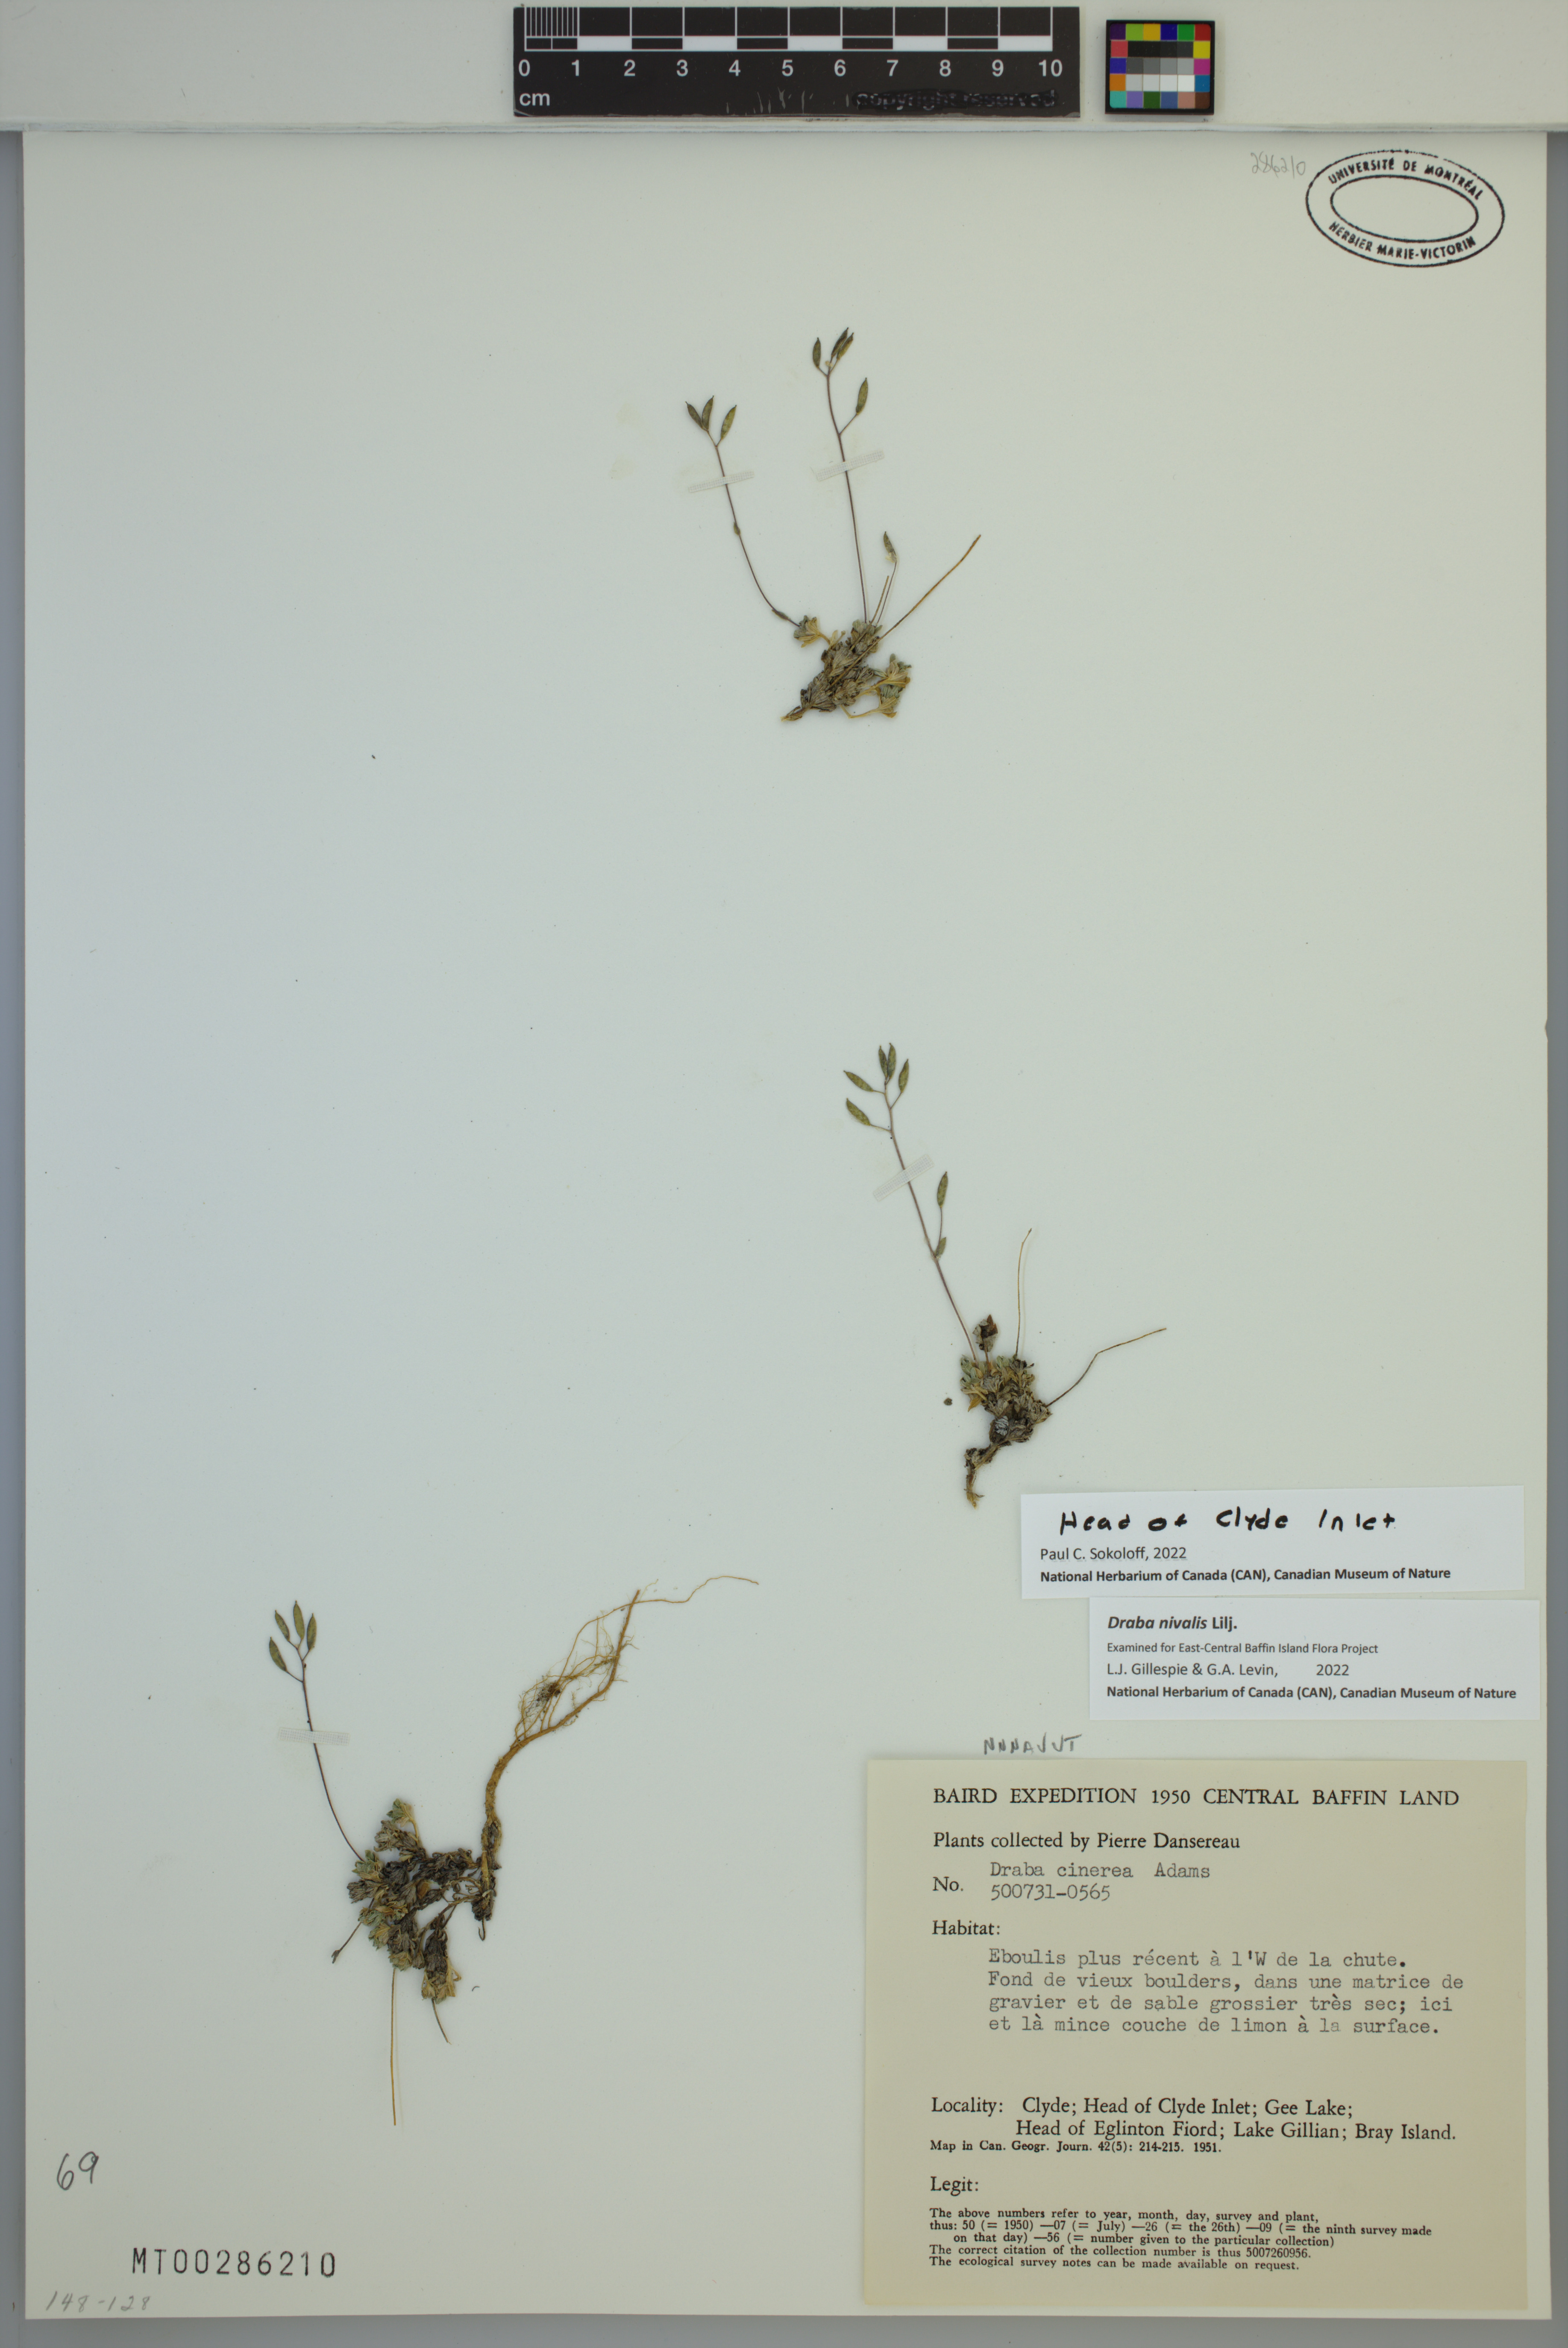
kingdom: Plantae
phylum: Tracheophyta
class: Magnoliopsida
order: Brassicales
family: Brassicaceae
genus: Draba
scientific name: Draba nivalis
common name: Snow draba
